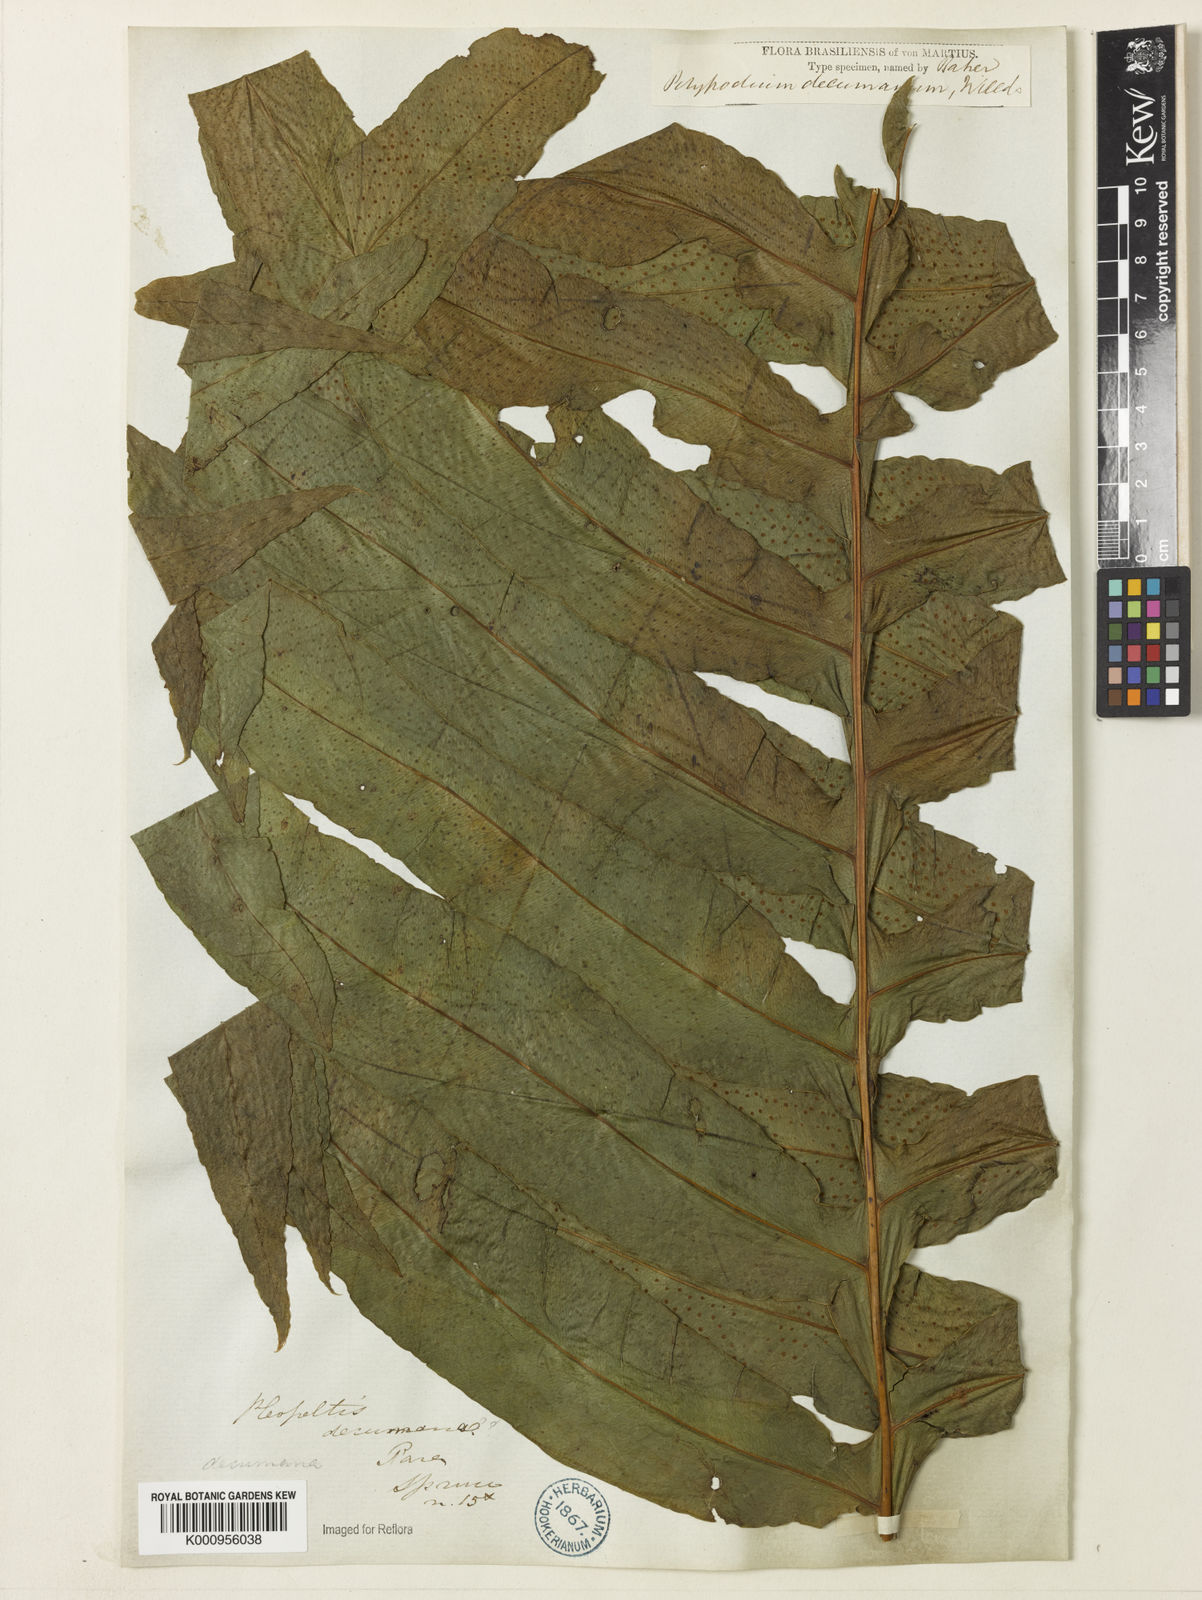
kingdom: Plantae
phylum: Tracheophyta
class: Polypodiopsida
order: Polypodiales
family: Polypodiaceae
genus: Phlebodium
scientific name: Phlebodium decumanum
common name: Golden polypod
